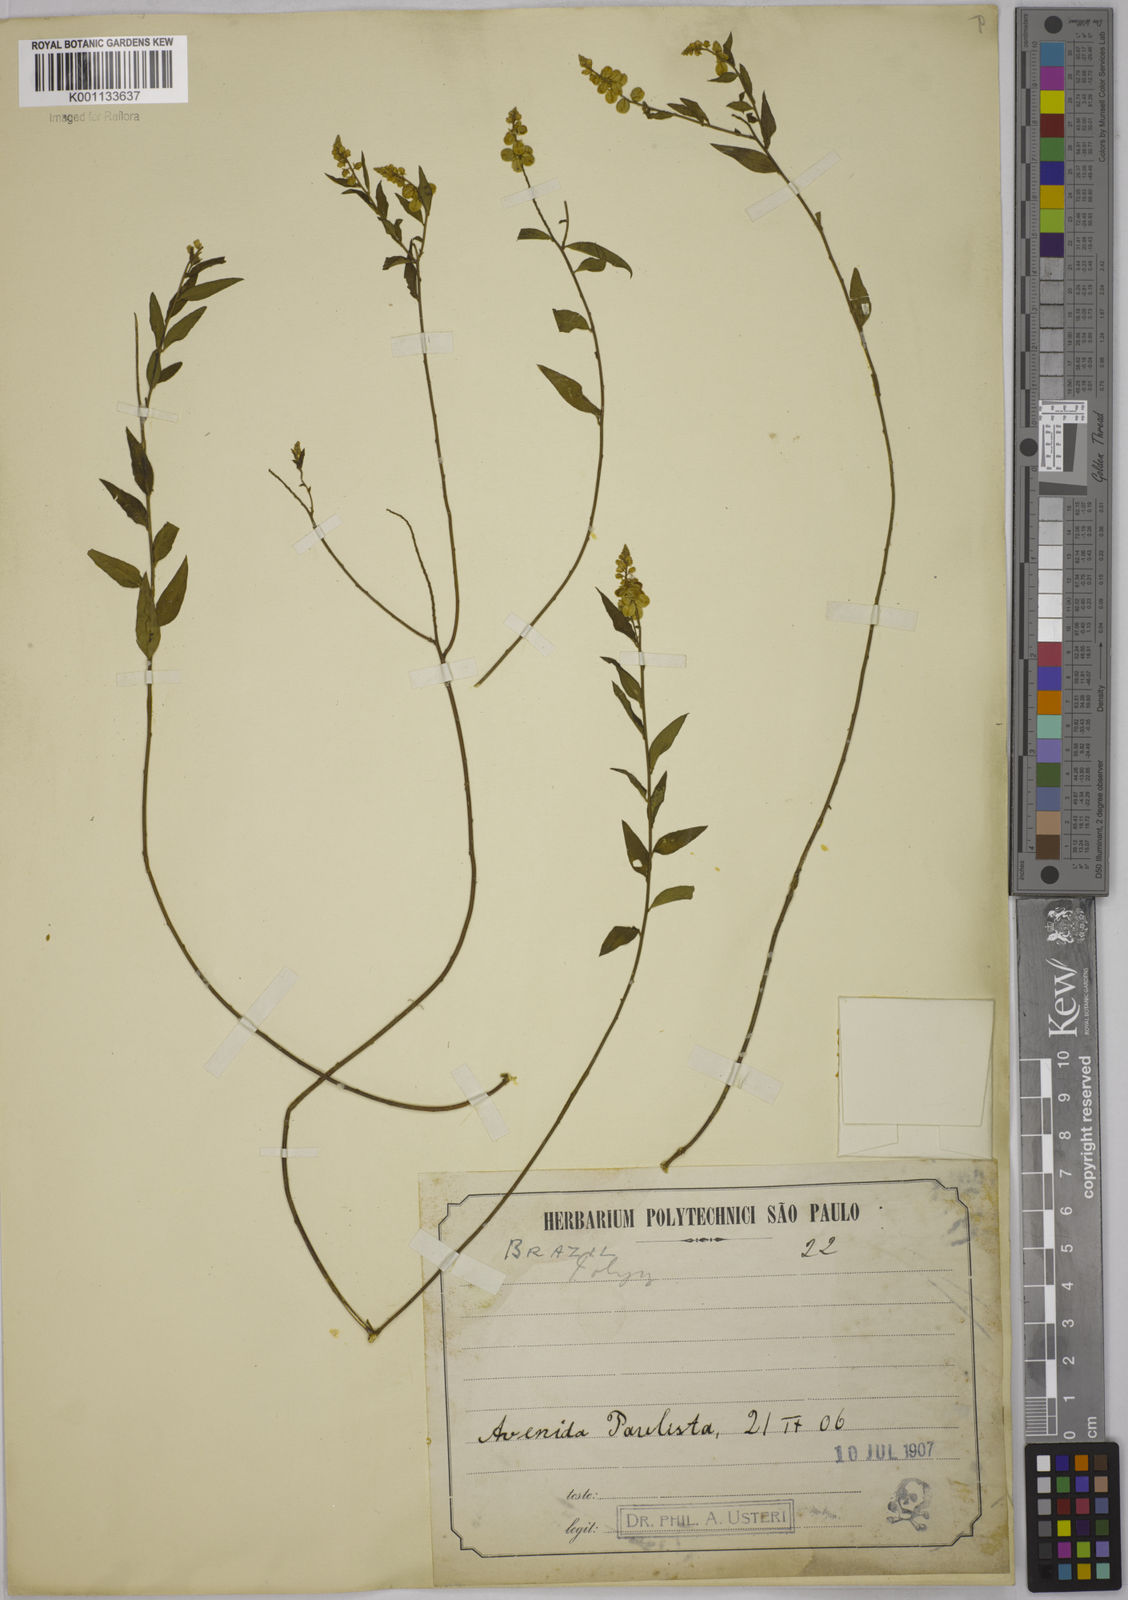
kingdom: Plantae
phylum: Tracheophyta
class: Magnoliopsida
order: Fabales
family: Polygalaceae
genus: Polygala
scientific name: Polygala lancifolia
